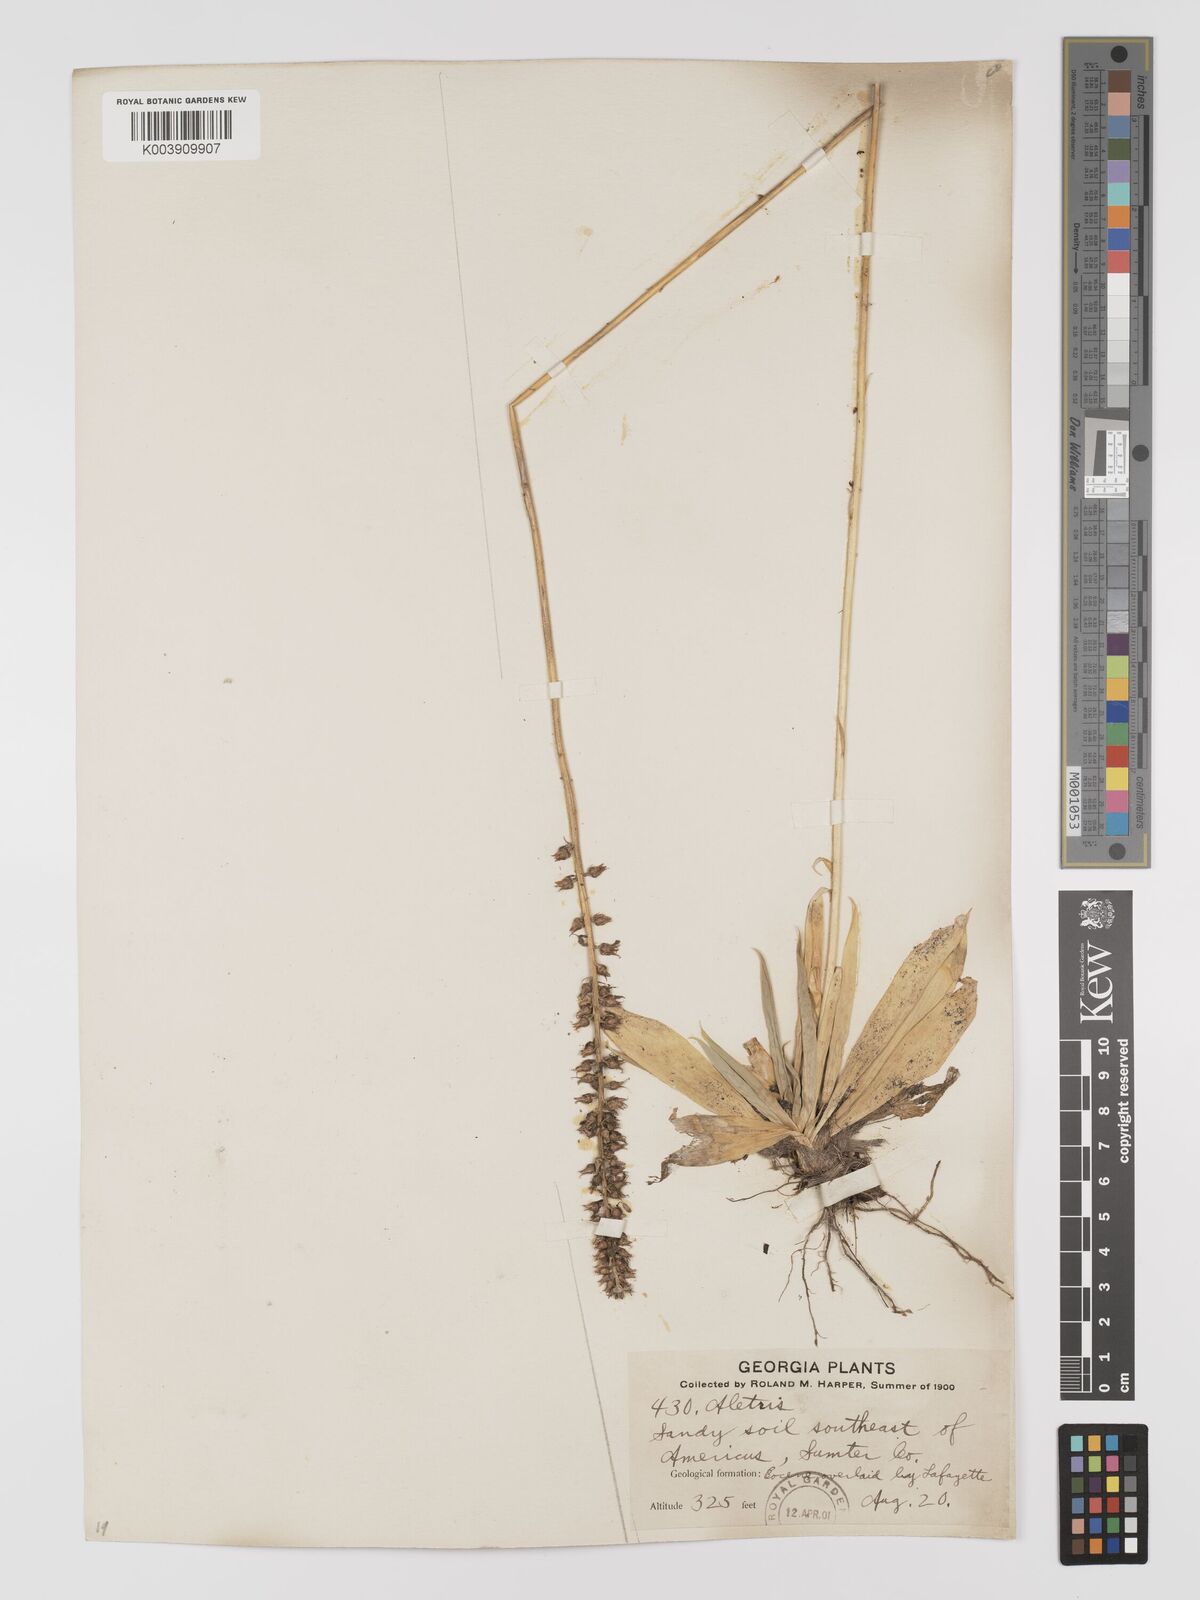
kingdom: Plantae
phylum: Tracheophyta
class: Liliopsida
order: Dioscoreales
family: Nartheciaceae
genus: Aletris
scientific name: Aletris aurea
